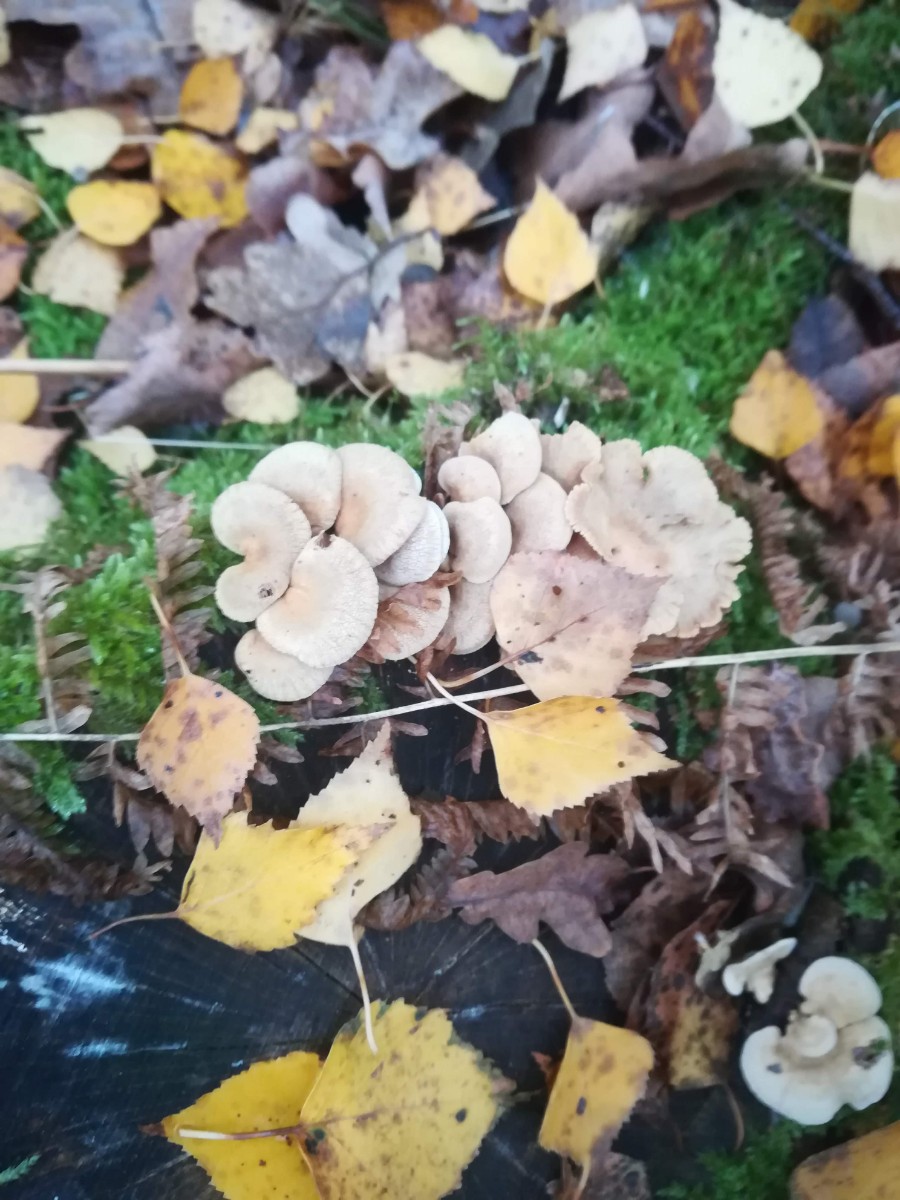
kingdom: Fungi
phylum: Basidiomycota
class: Agaricomycetes
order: Agaricales
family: Mycenaceae
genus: Panellus
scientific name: Panellus stipticus
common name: kliddet epaulethat
